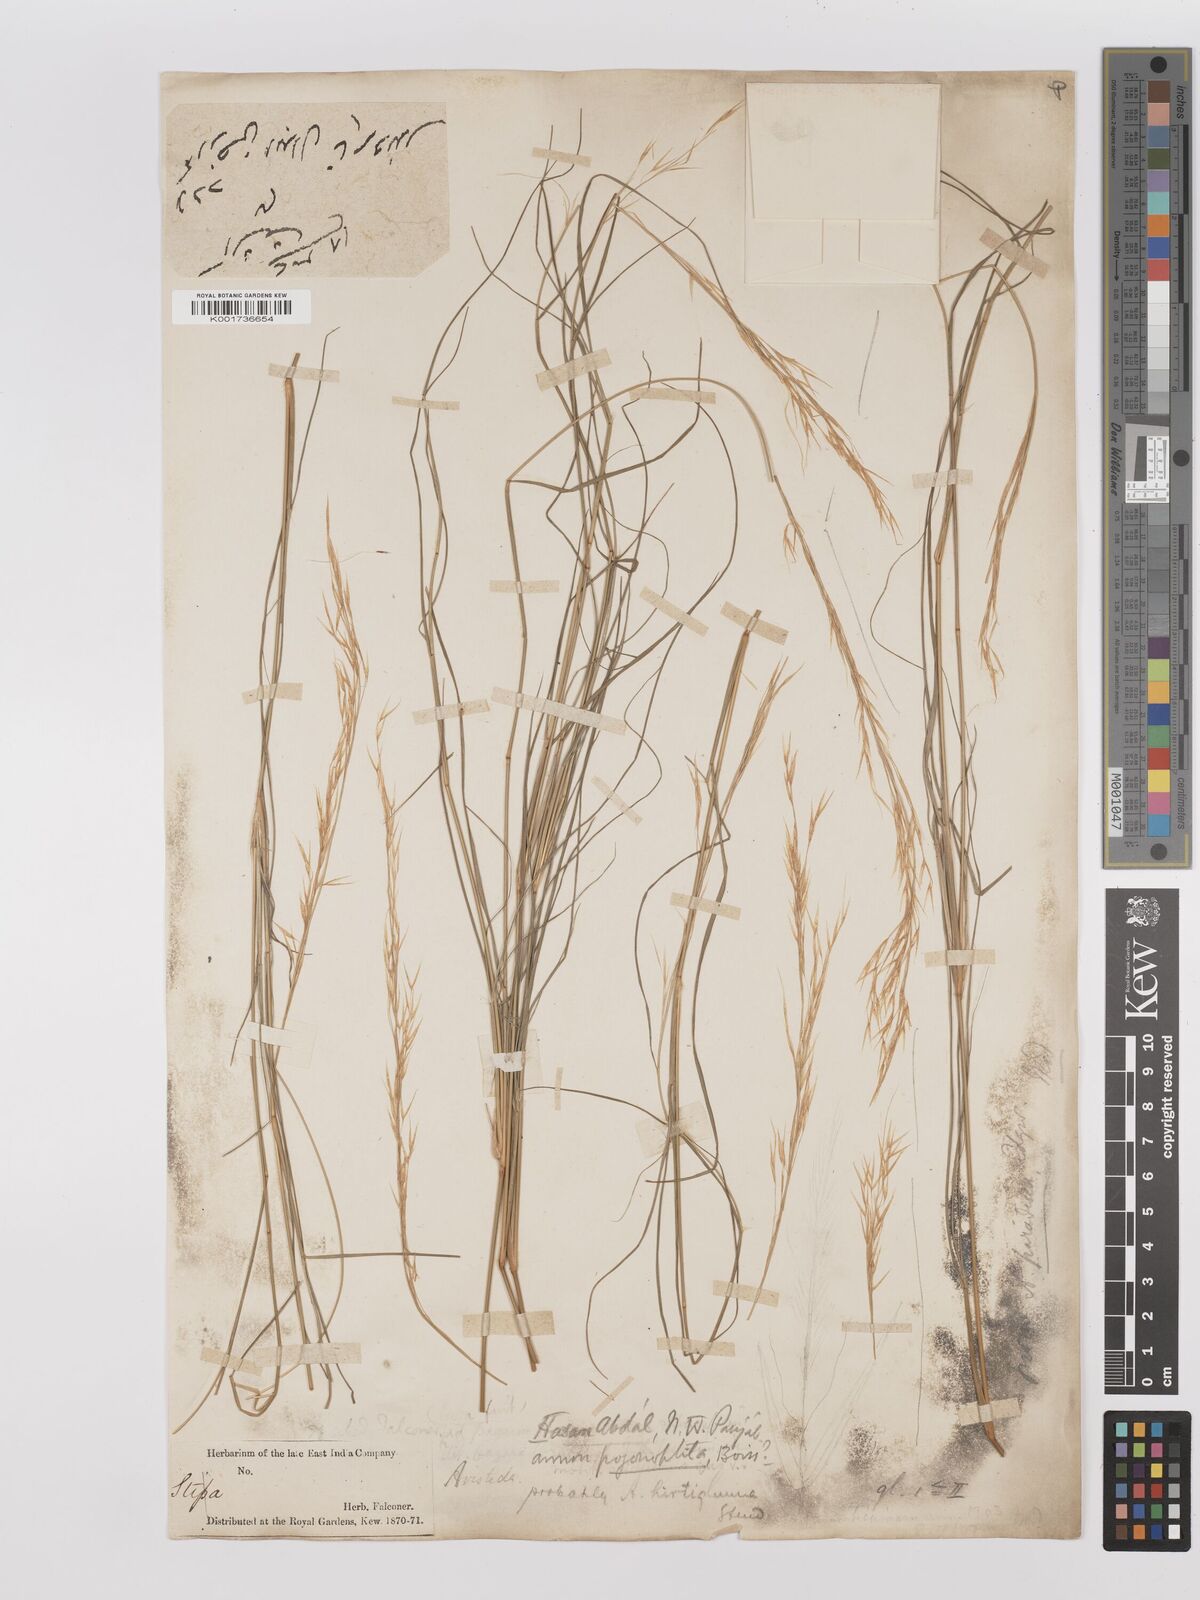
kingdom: Plantae
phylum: Tracheophyta
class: Liliopsida
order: Poales
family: Poaceae
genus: Stipagrostis
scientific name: Stipagrostis uniplumis
